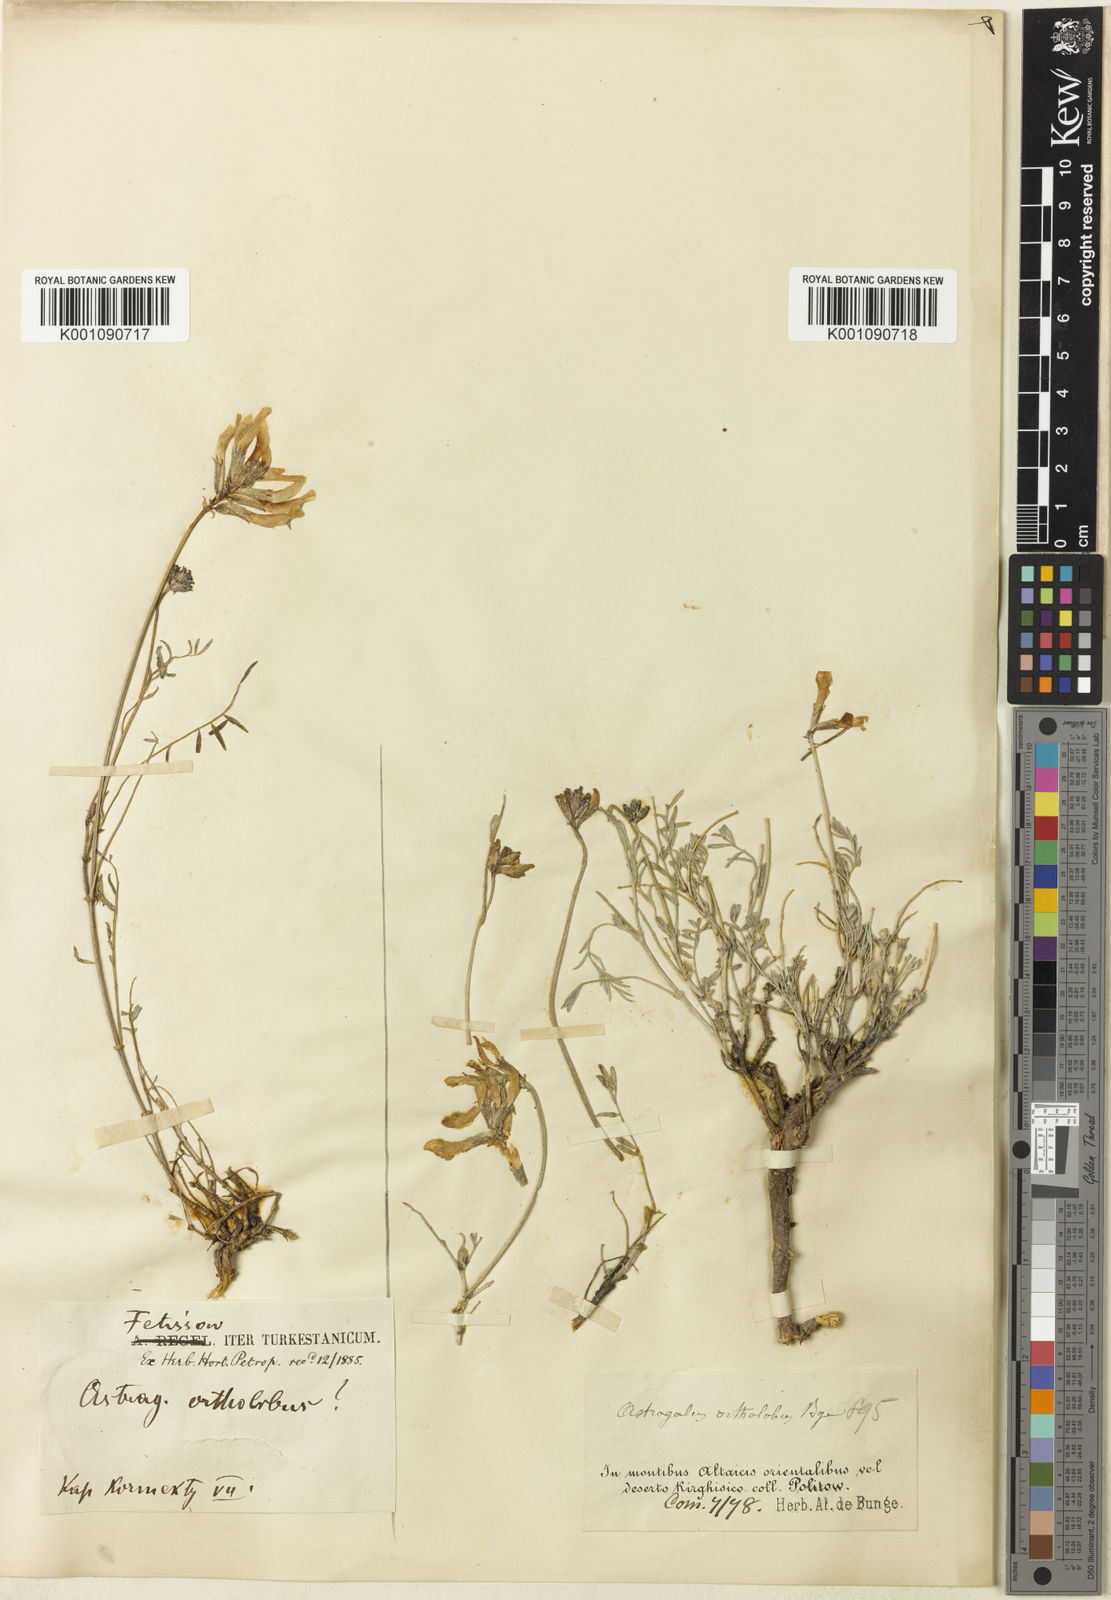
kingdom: Plantae
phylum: Tracheophyta
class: Magnoliopsida
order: Fabales
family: Fabaceae
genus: Astragalus
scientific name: Astragalus
